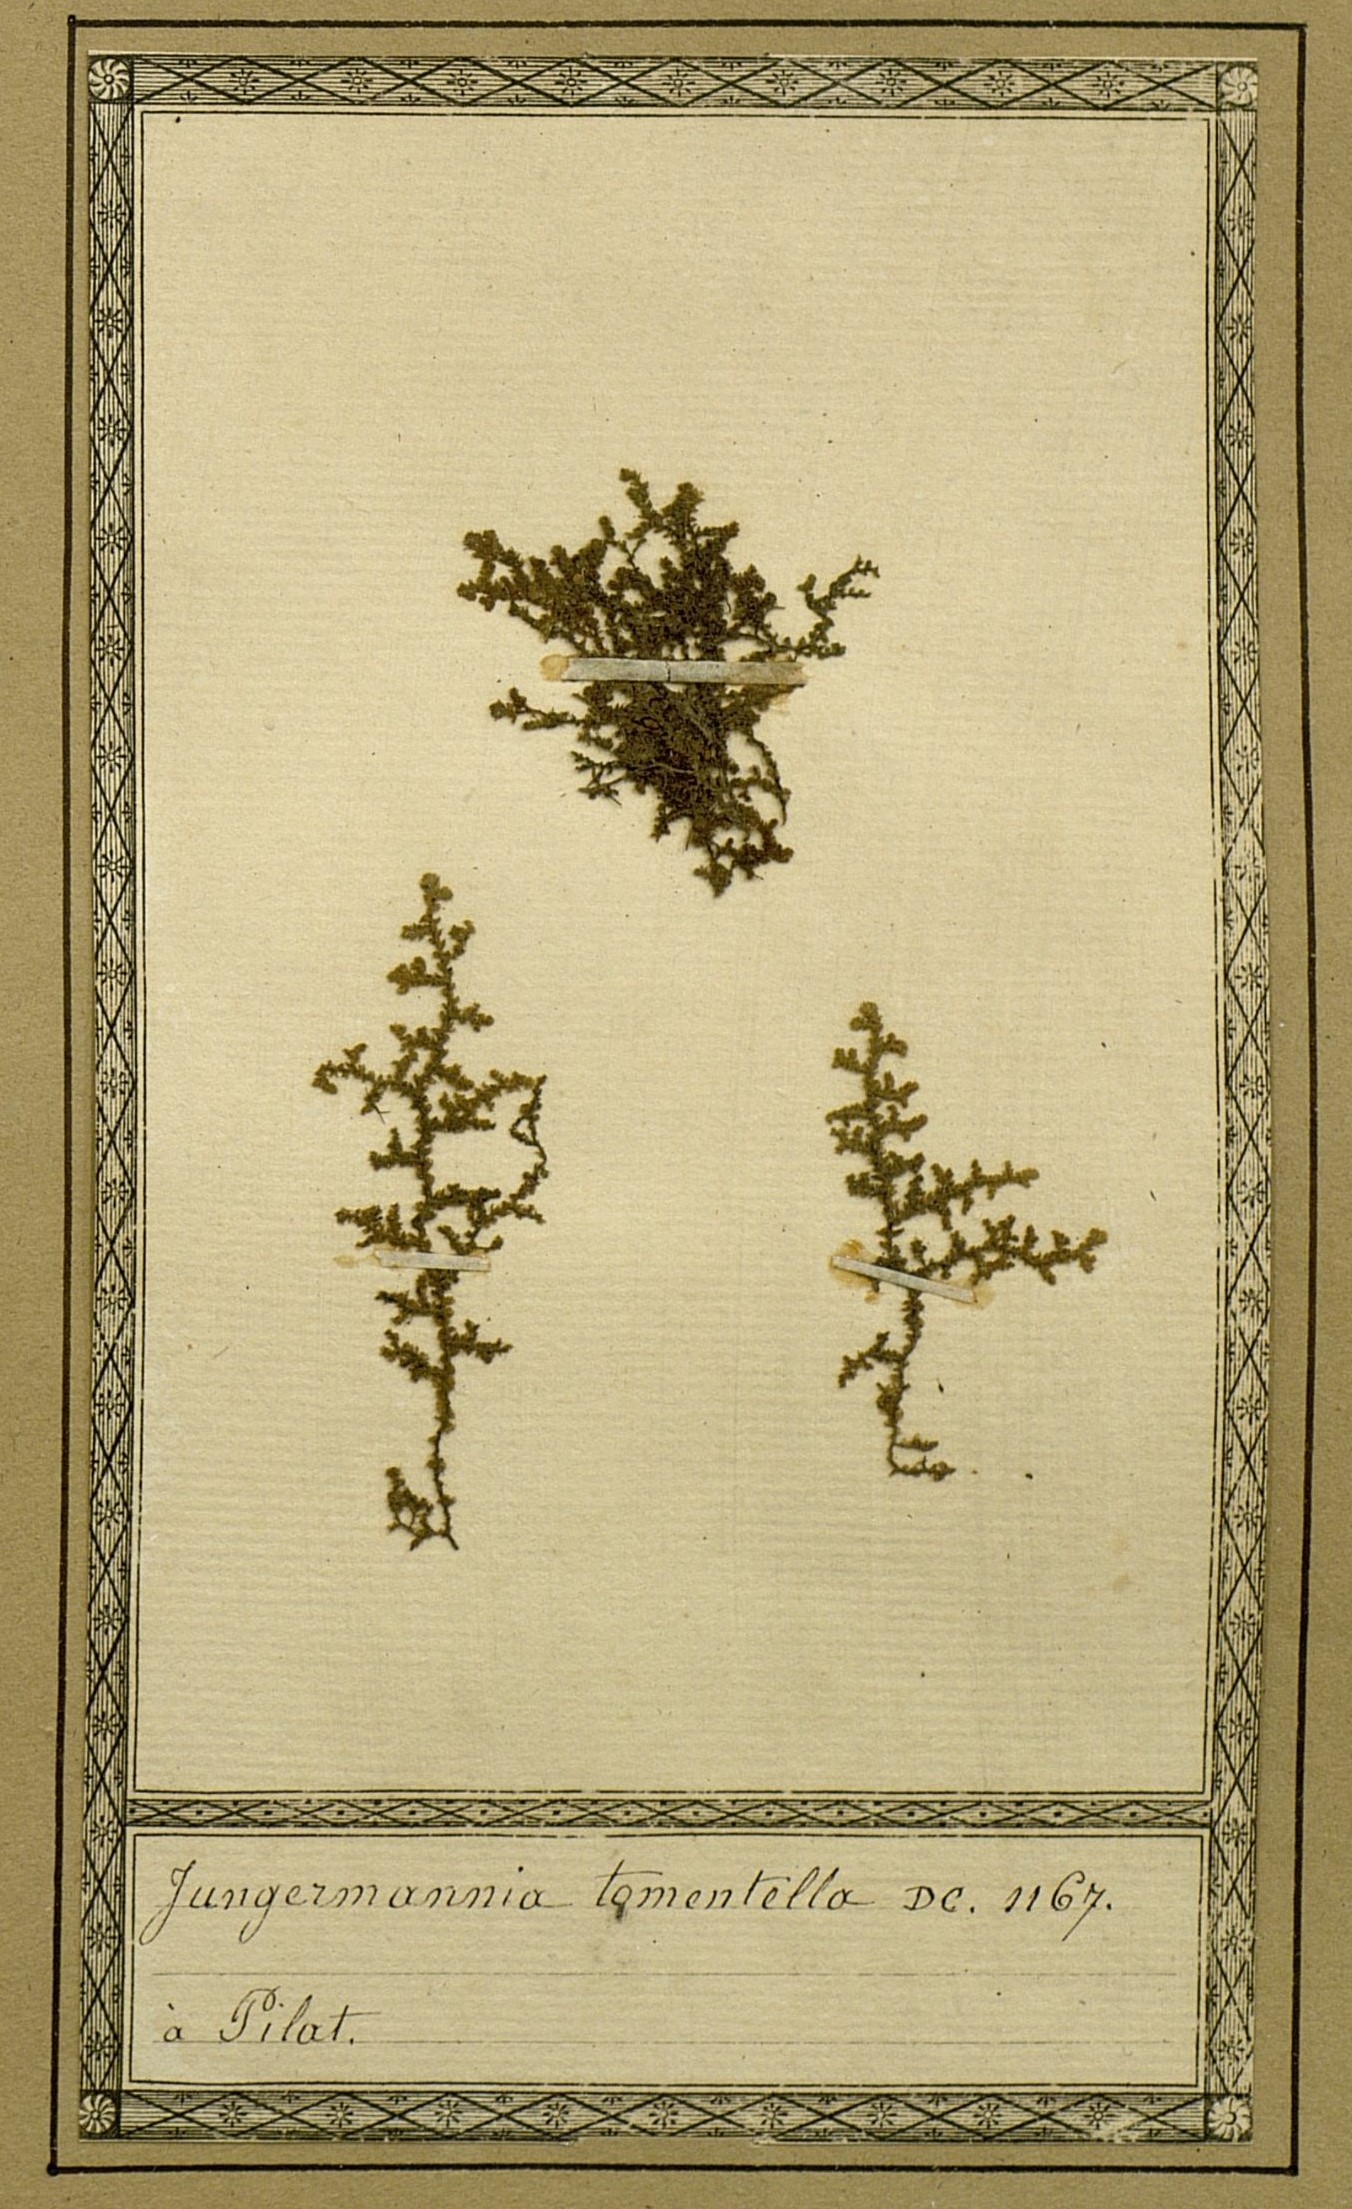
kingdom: Plantae
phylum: Marchantiophyta
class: Jungermanniopsida
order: Jungermanniales
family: Trichocoleaceae
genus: Trichocolea
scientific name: Trichocolea tomentella
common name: Woolly liverwort
